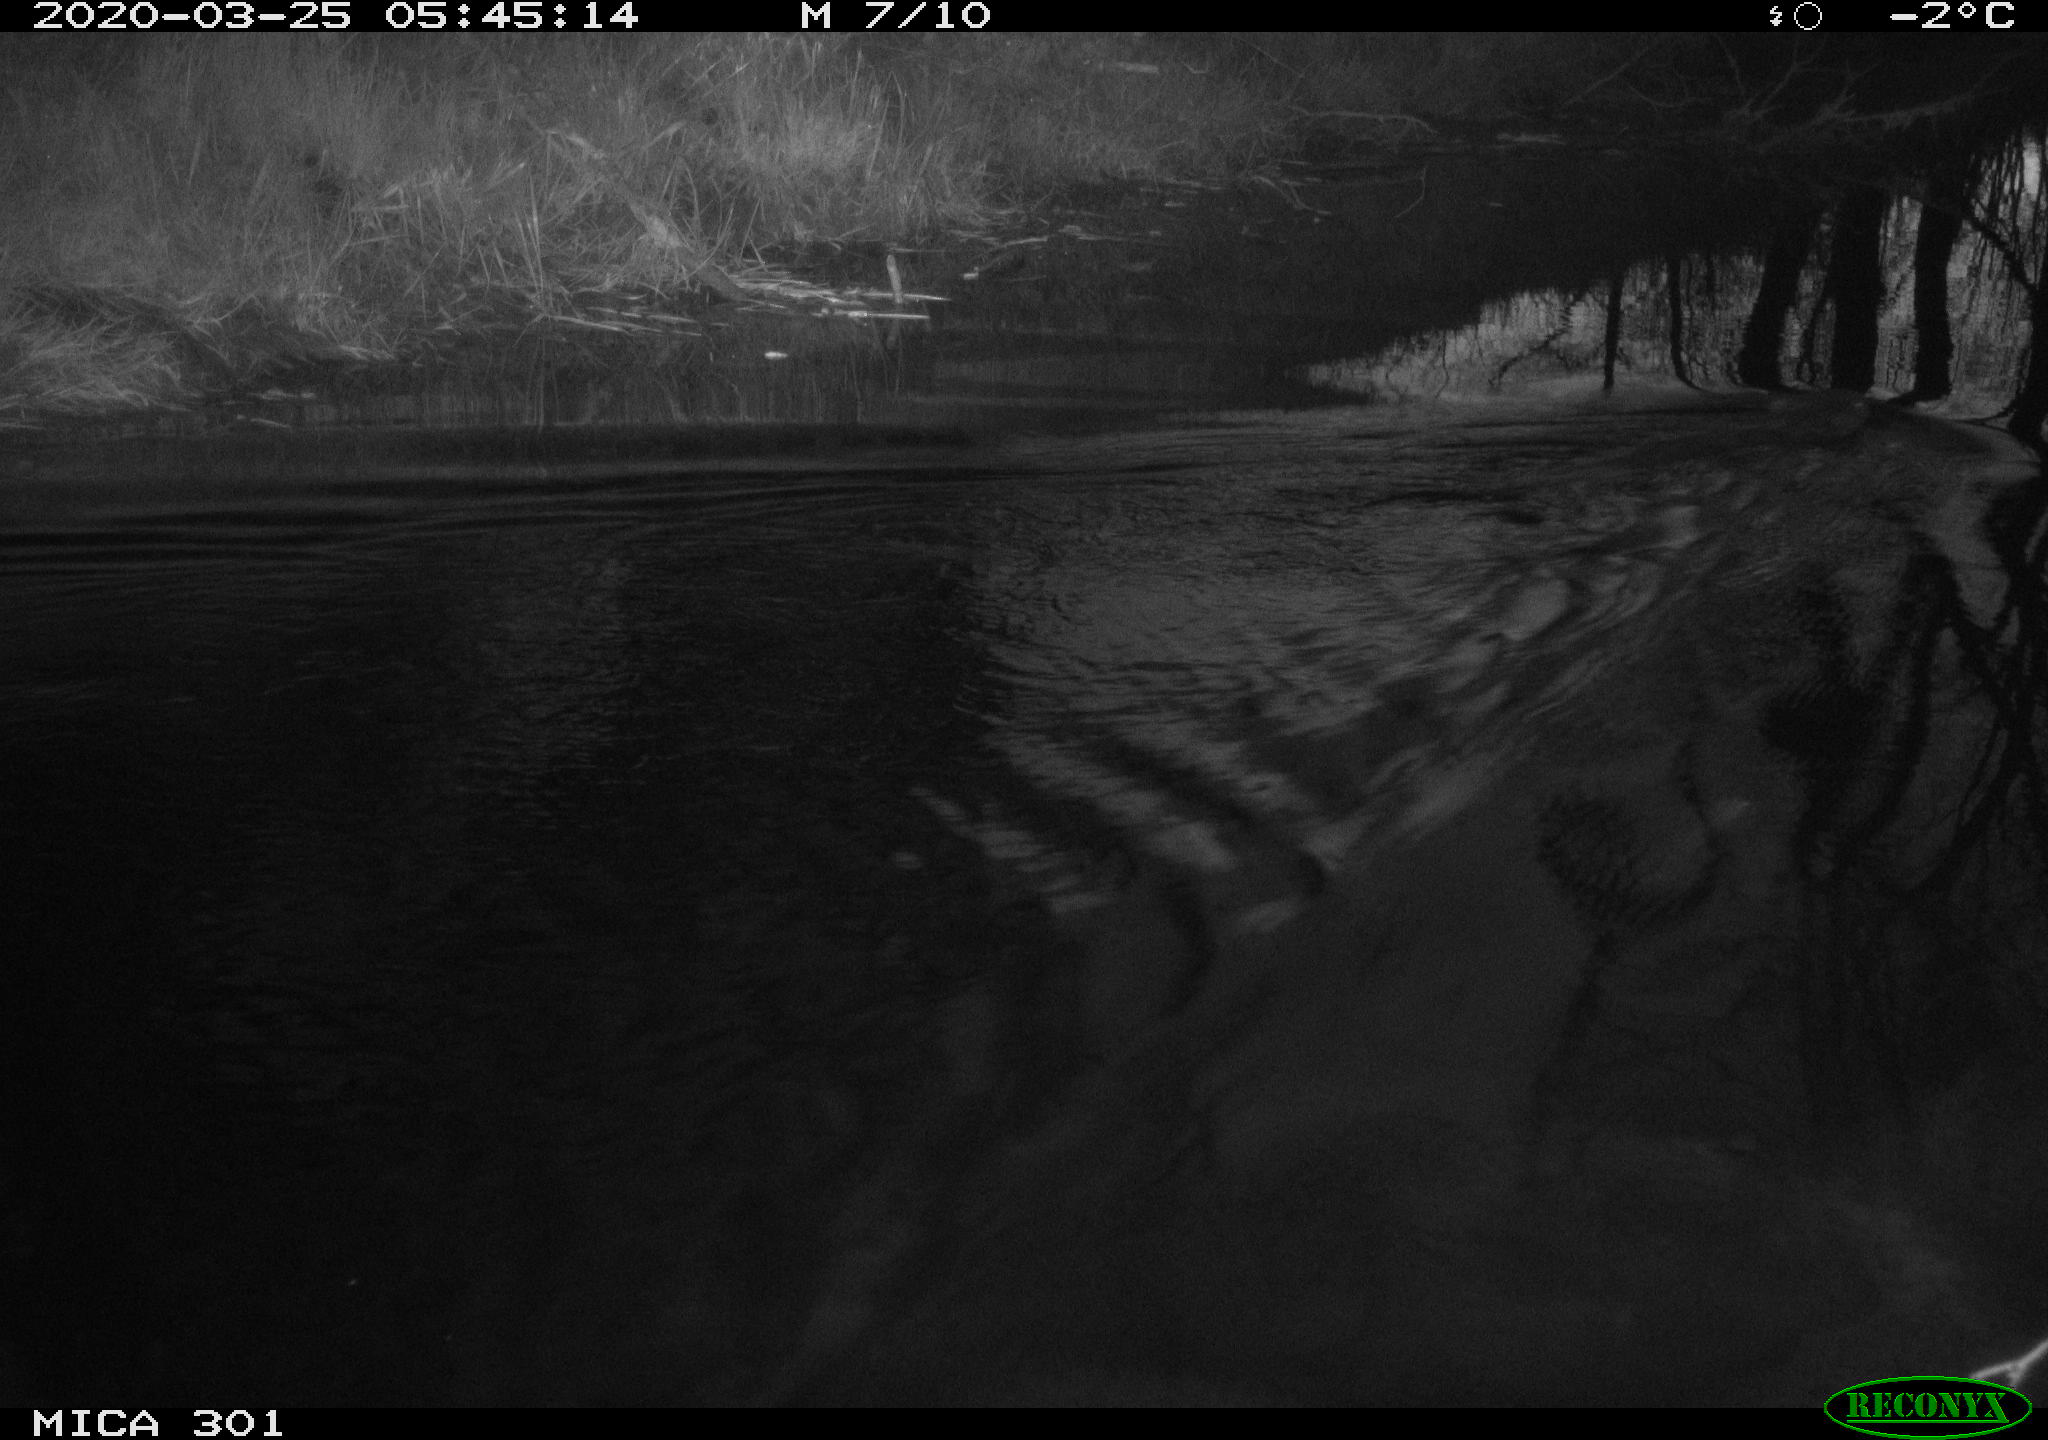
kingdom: Animalia
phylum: Chordata
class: Mammalia
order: Rodentia
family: Castoridae
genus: Castor
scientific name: Castor fiber
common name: Eurasian beaver
